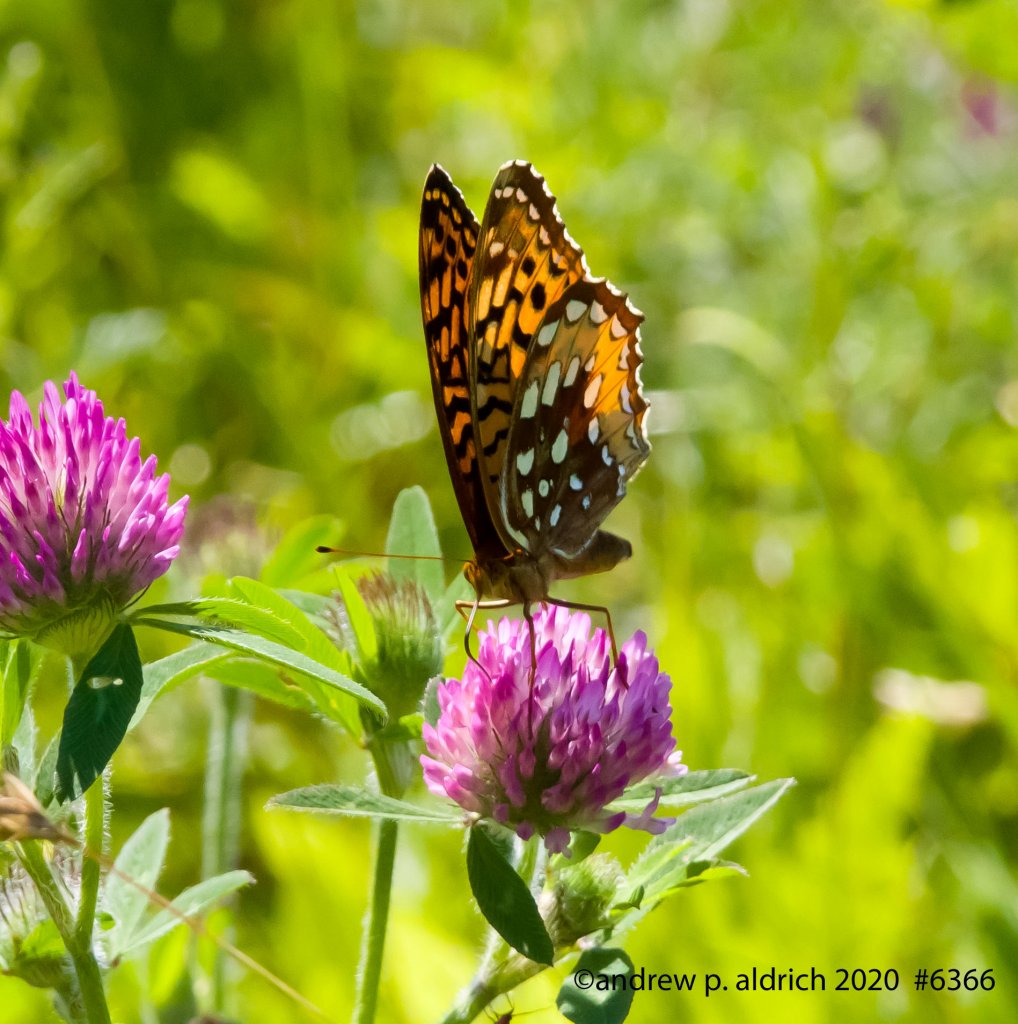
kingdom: Animalia
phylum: Arthropoda
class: Insecta
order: Lepidoptera
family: Nymphalidae
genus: Speyeria
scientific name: Speyeria cybele
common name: Great Spangled Fritillary
